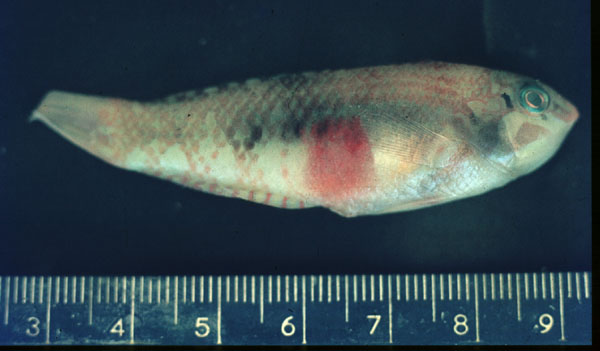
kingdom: Animalia
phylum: Chordata
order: Perciformes
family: Labridae
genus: Halichoeres
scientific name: Halichoeres nebulosus
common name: Clouded wrasse
